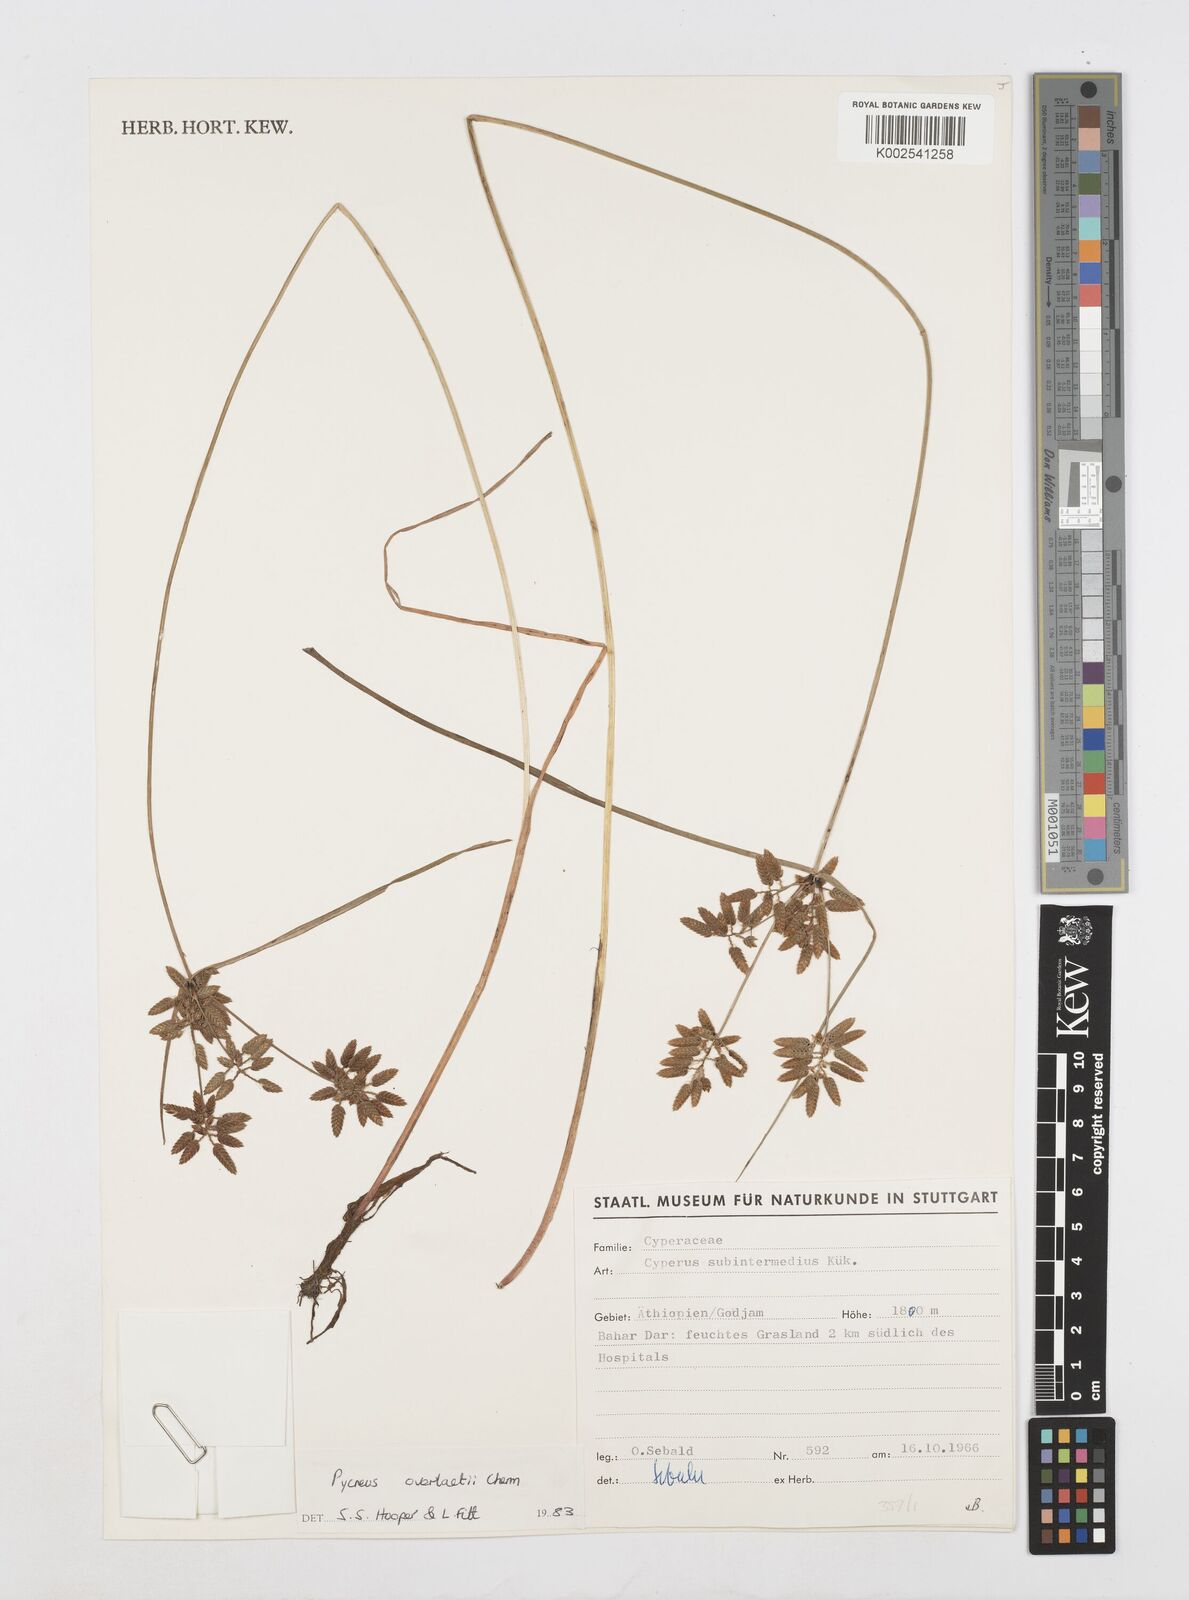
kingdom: Plantae
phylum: Tracheophyta
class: Liliopsida
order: Poales
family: Cyperaceae
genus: Cyperus
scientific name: Cyperus unioloides
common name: Uniola flatsedge
